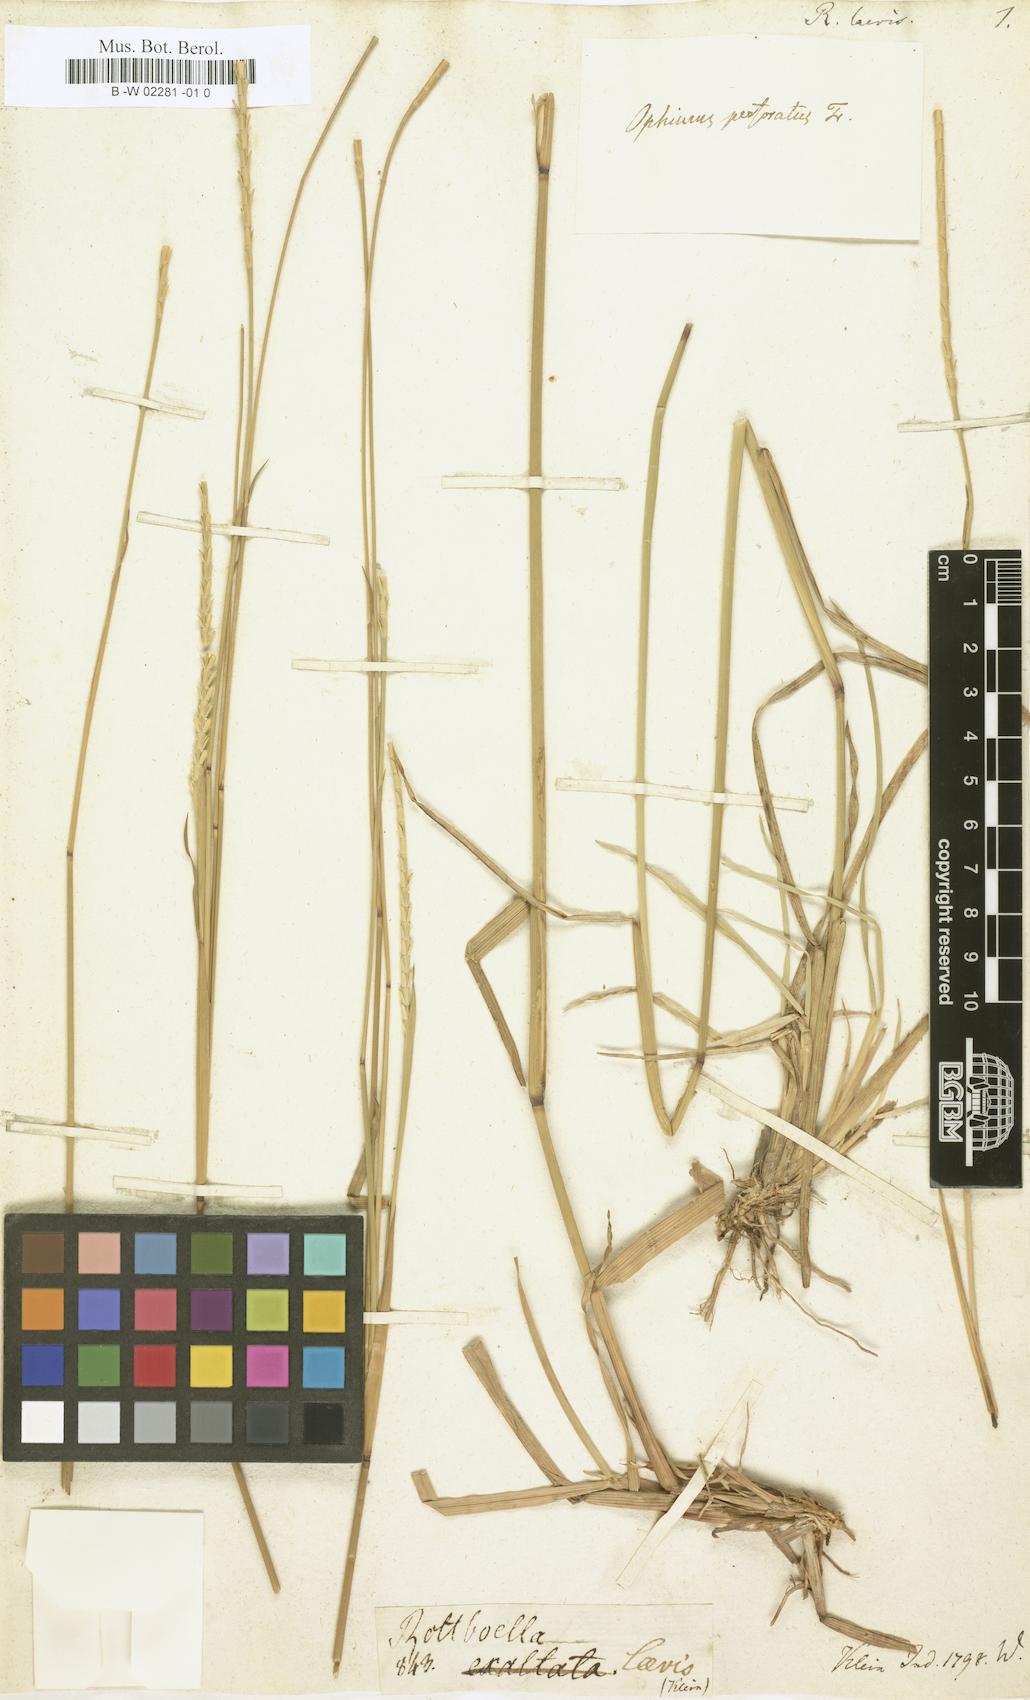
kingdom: Plantae
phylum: Tracheophyta
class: Liliopsida
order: Poales
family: Poaceae
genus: Mnesithea
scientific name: Mnesithea laevis
